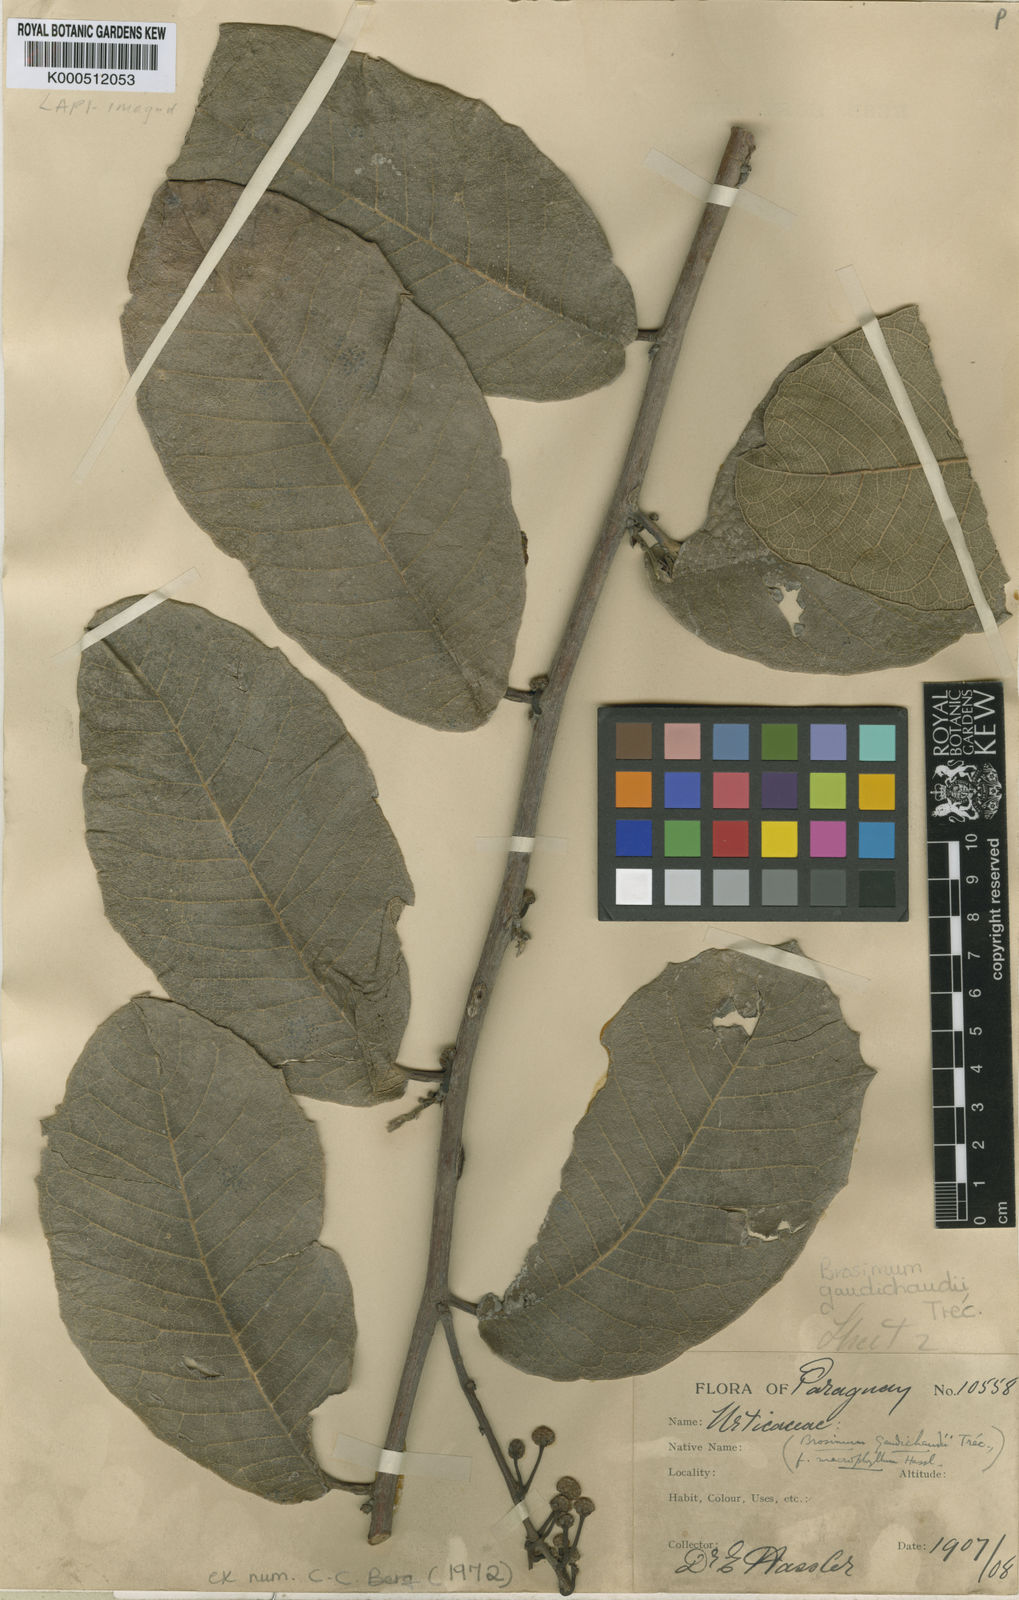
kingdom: Plantae
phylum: Tracheophyta
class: Magnoliopsida
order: Rosales
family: Moraceae
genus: Brosimum
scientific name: Brosimum
